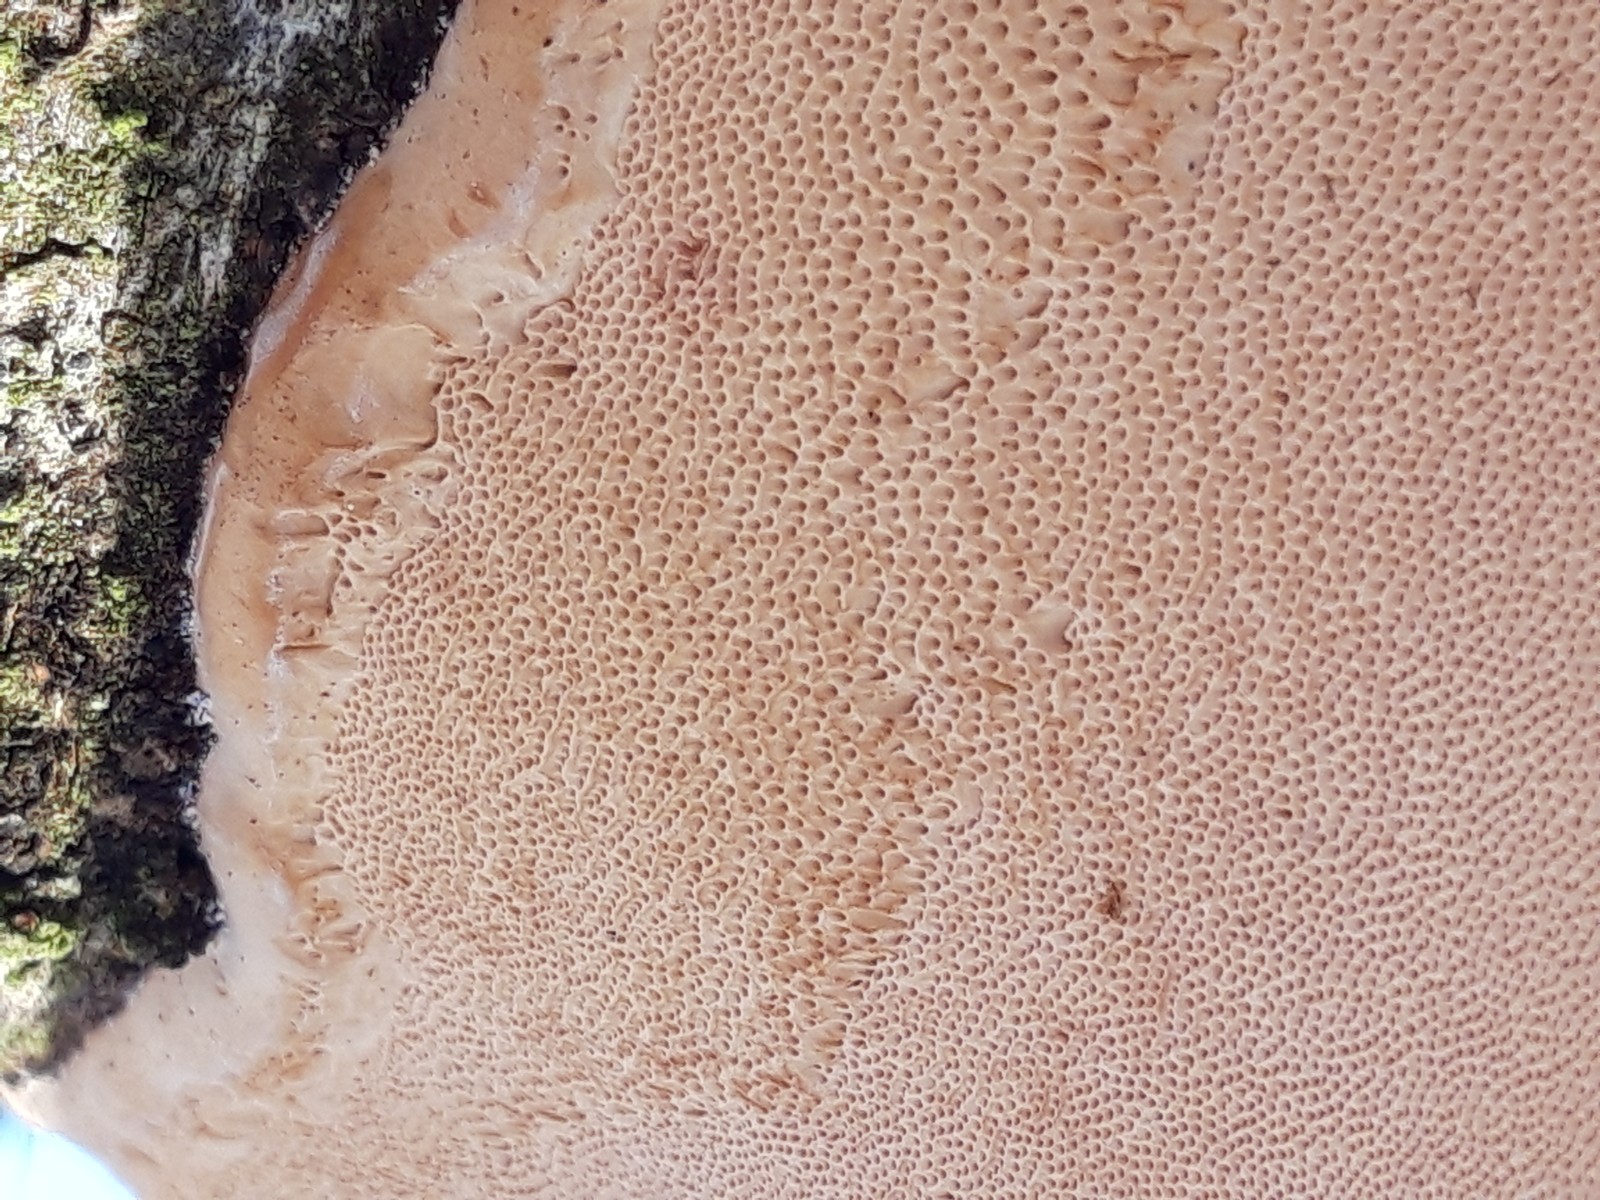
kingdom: Fungi
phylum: Basidiomycota
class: Agaricomycetes
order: Polyporales
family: Fomitopsidaceae
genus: Fomitopsis
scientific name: Fomitopsis pinicola
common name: randbæltet hovporesvamp
